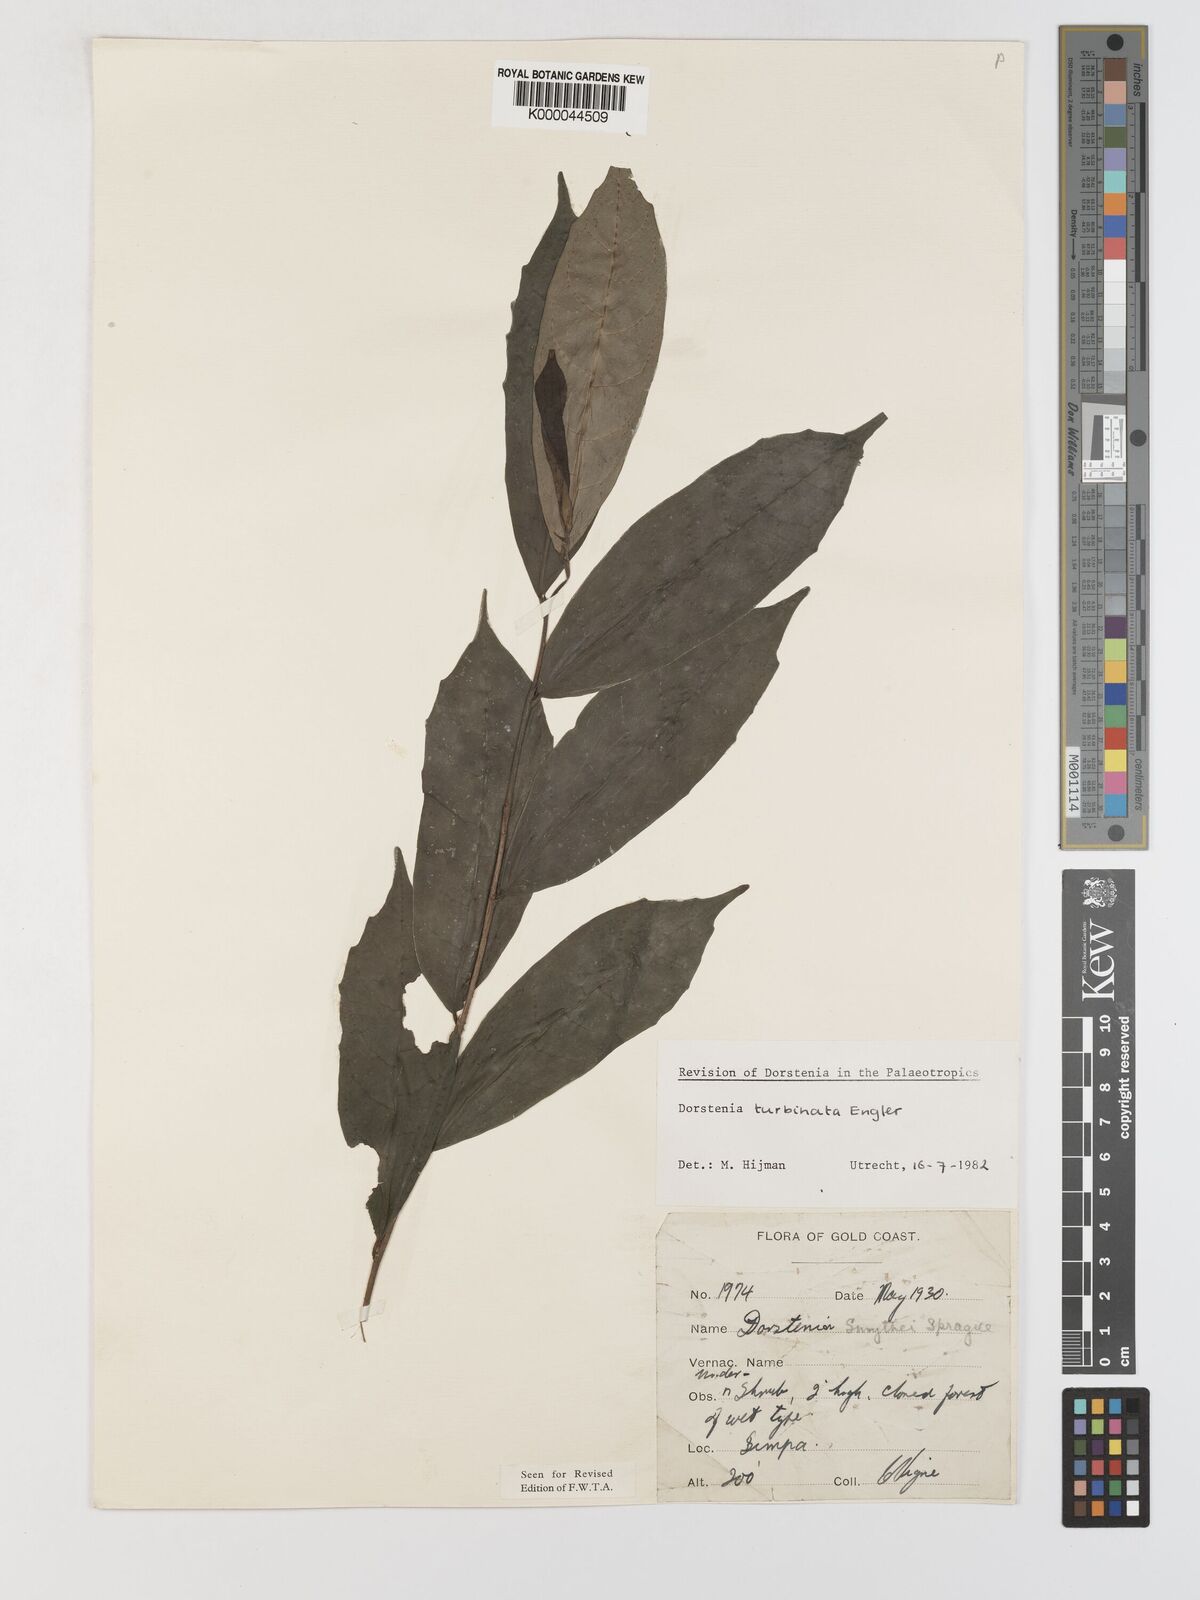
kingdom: Plantae
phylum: Tracheophyta
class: Magnoliopsida
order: Rosales
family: Moraceae
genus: Hijmania
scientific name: Hijmania turbinata
